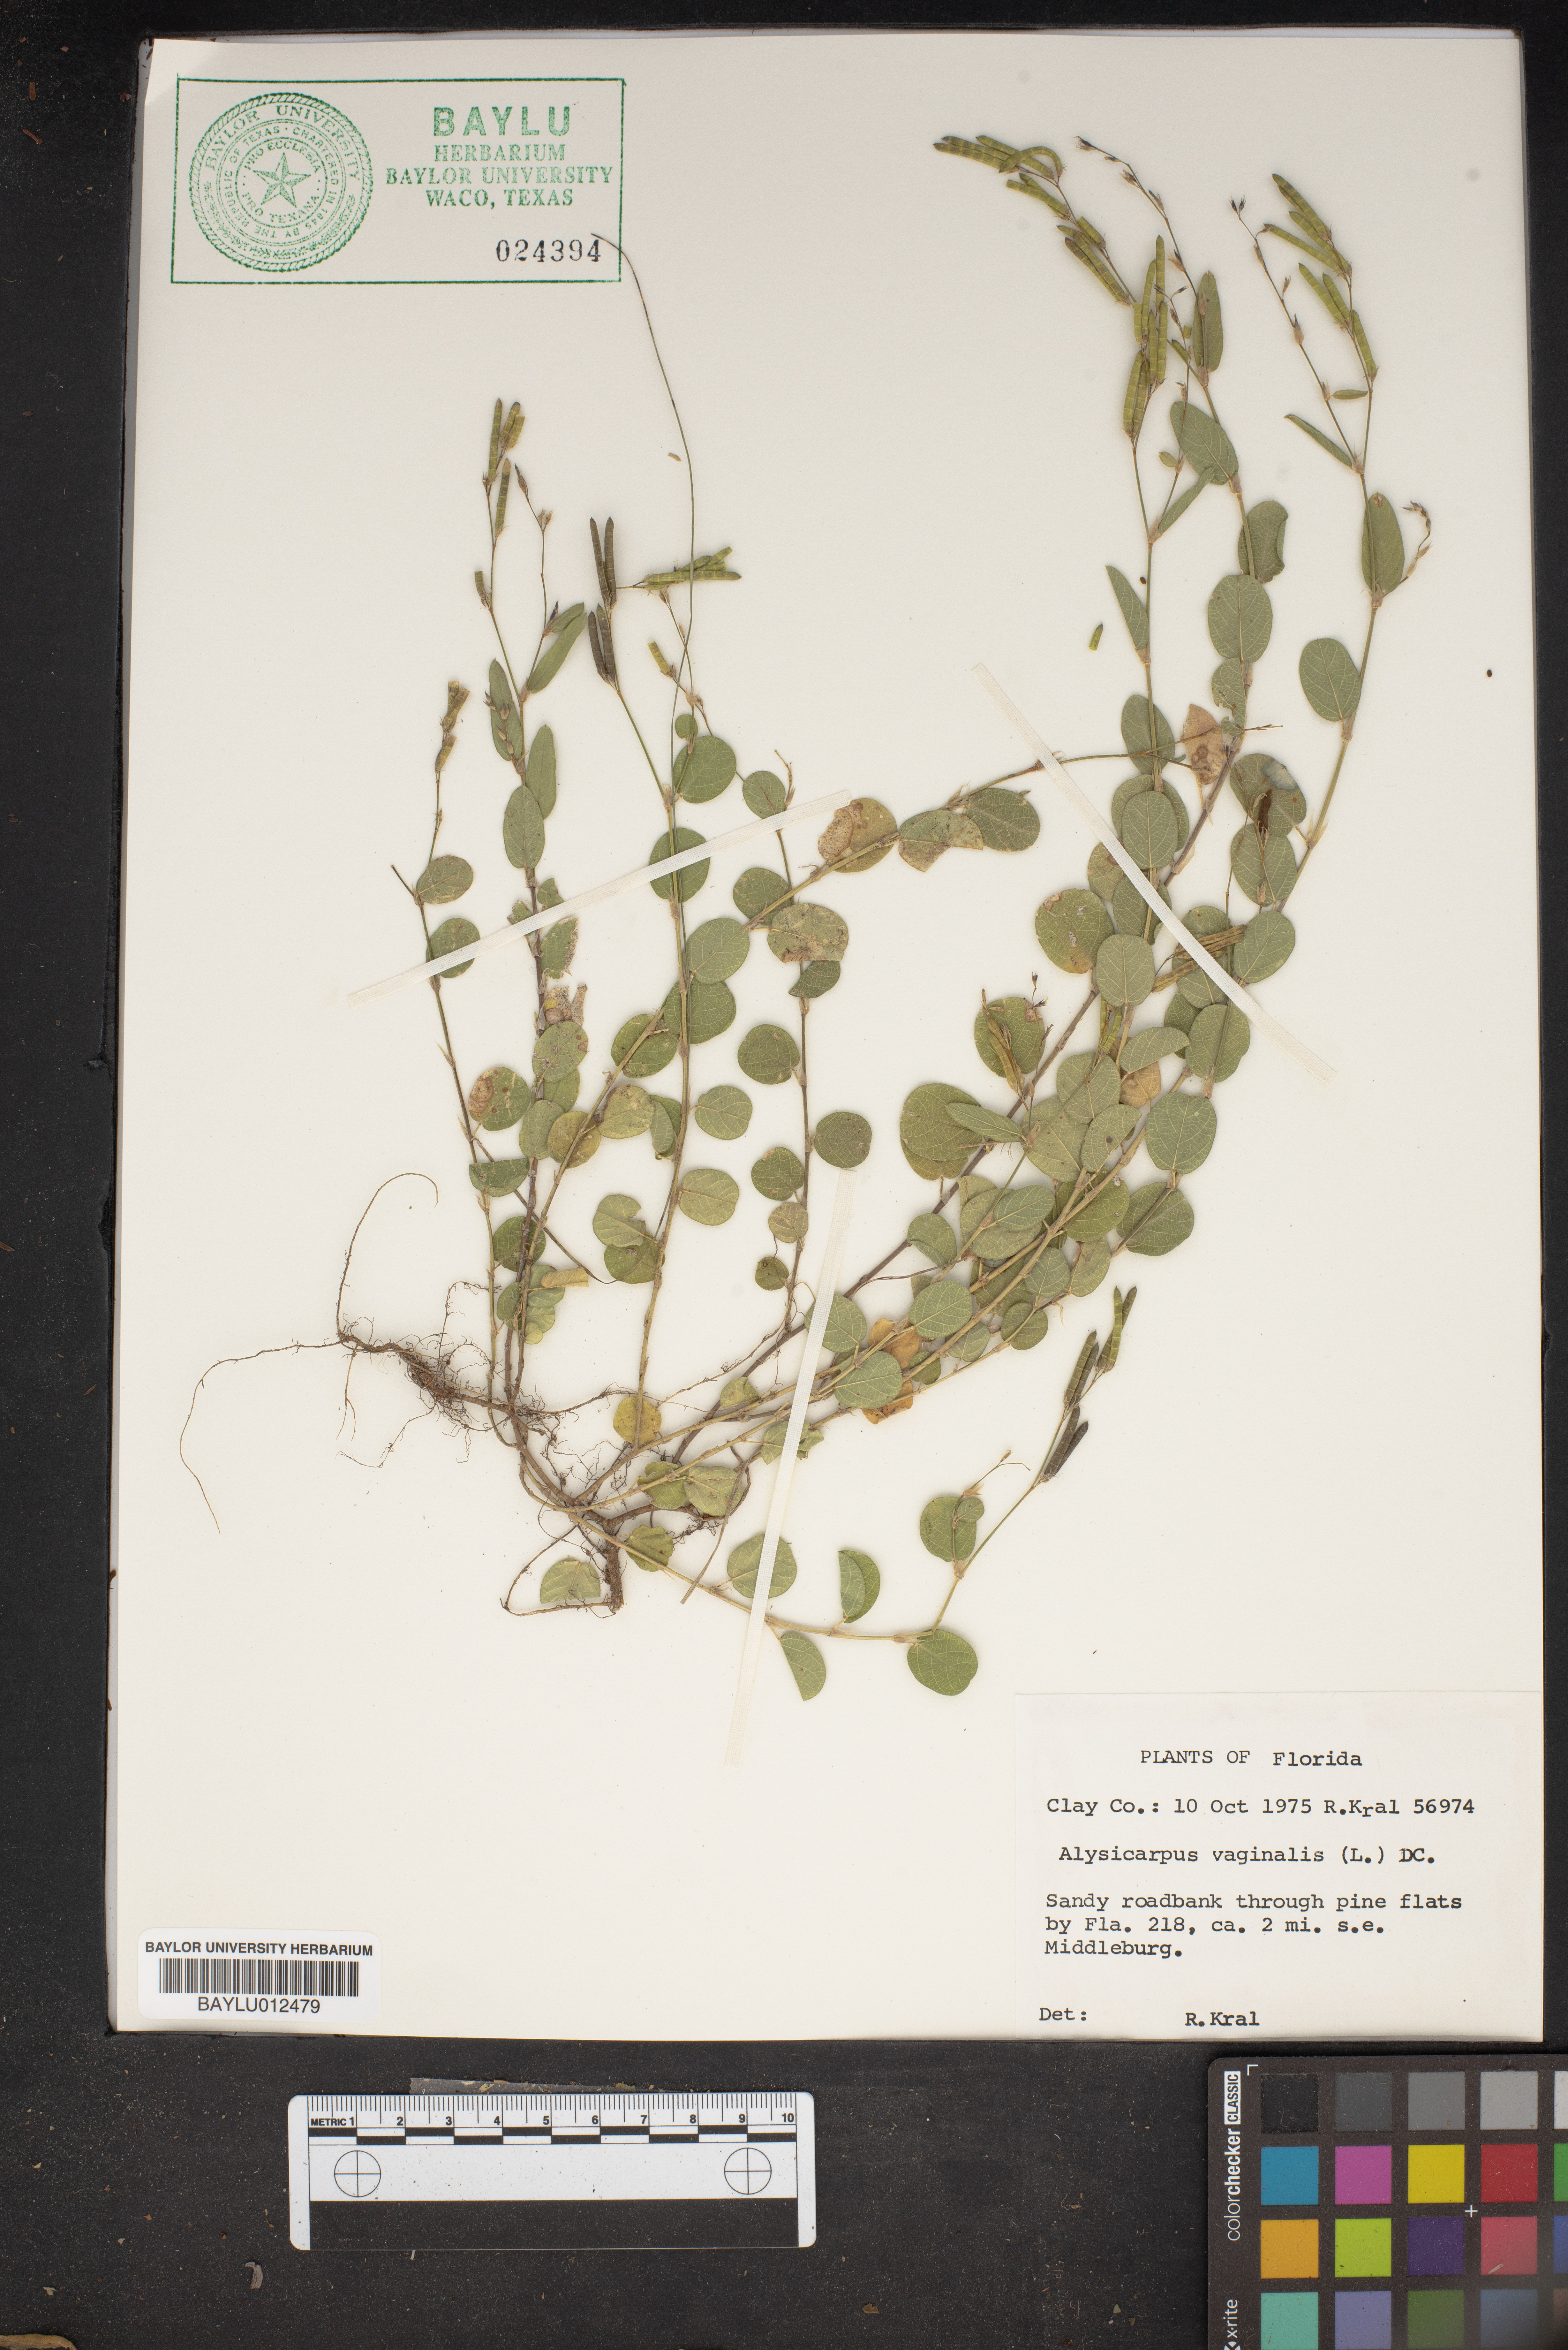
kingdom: Plantae
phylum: Tracheophyta
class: Magnoliopsida
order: Fabales
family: Fabaceae
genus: Alysicarpus
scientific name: Alysicarpus vaginalis
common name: White moneywort
